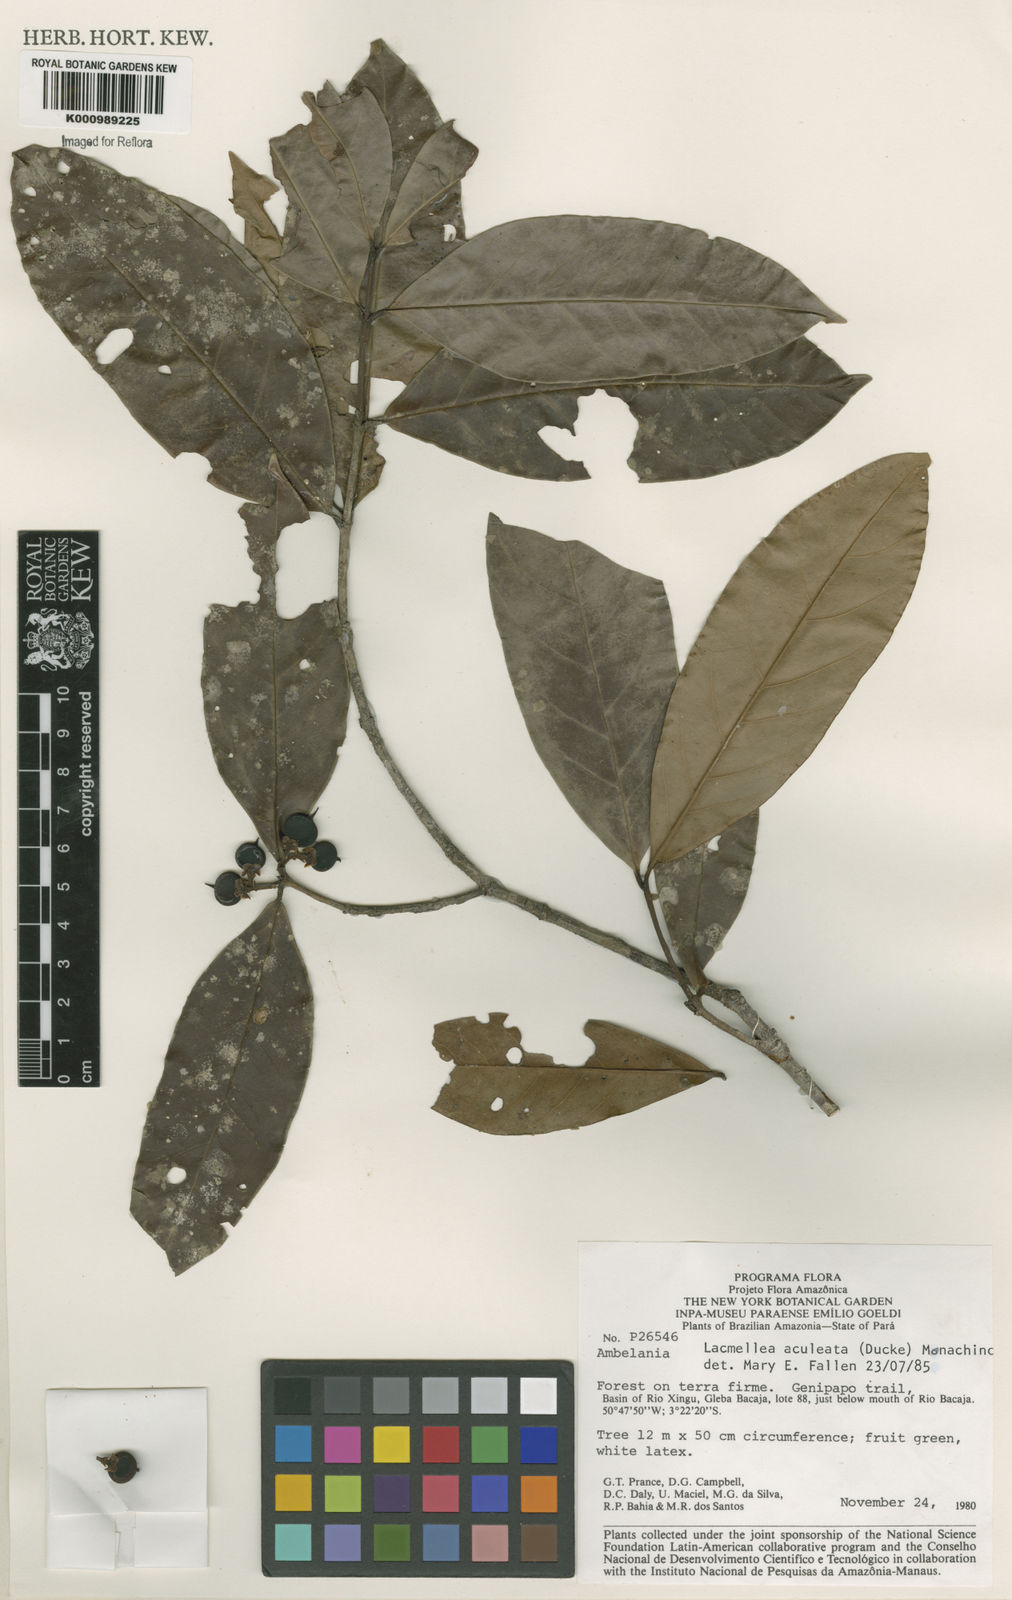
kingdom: Plantae
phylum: Tracheophyta
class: Magnoliopsida
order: Gentianales
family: Apocynaceae
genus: Lacmellea
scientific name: Lacmellea aculeata
